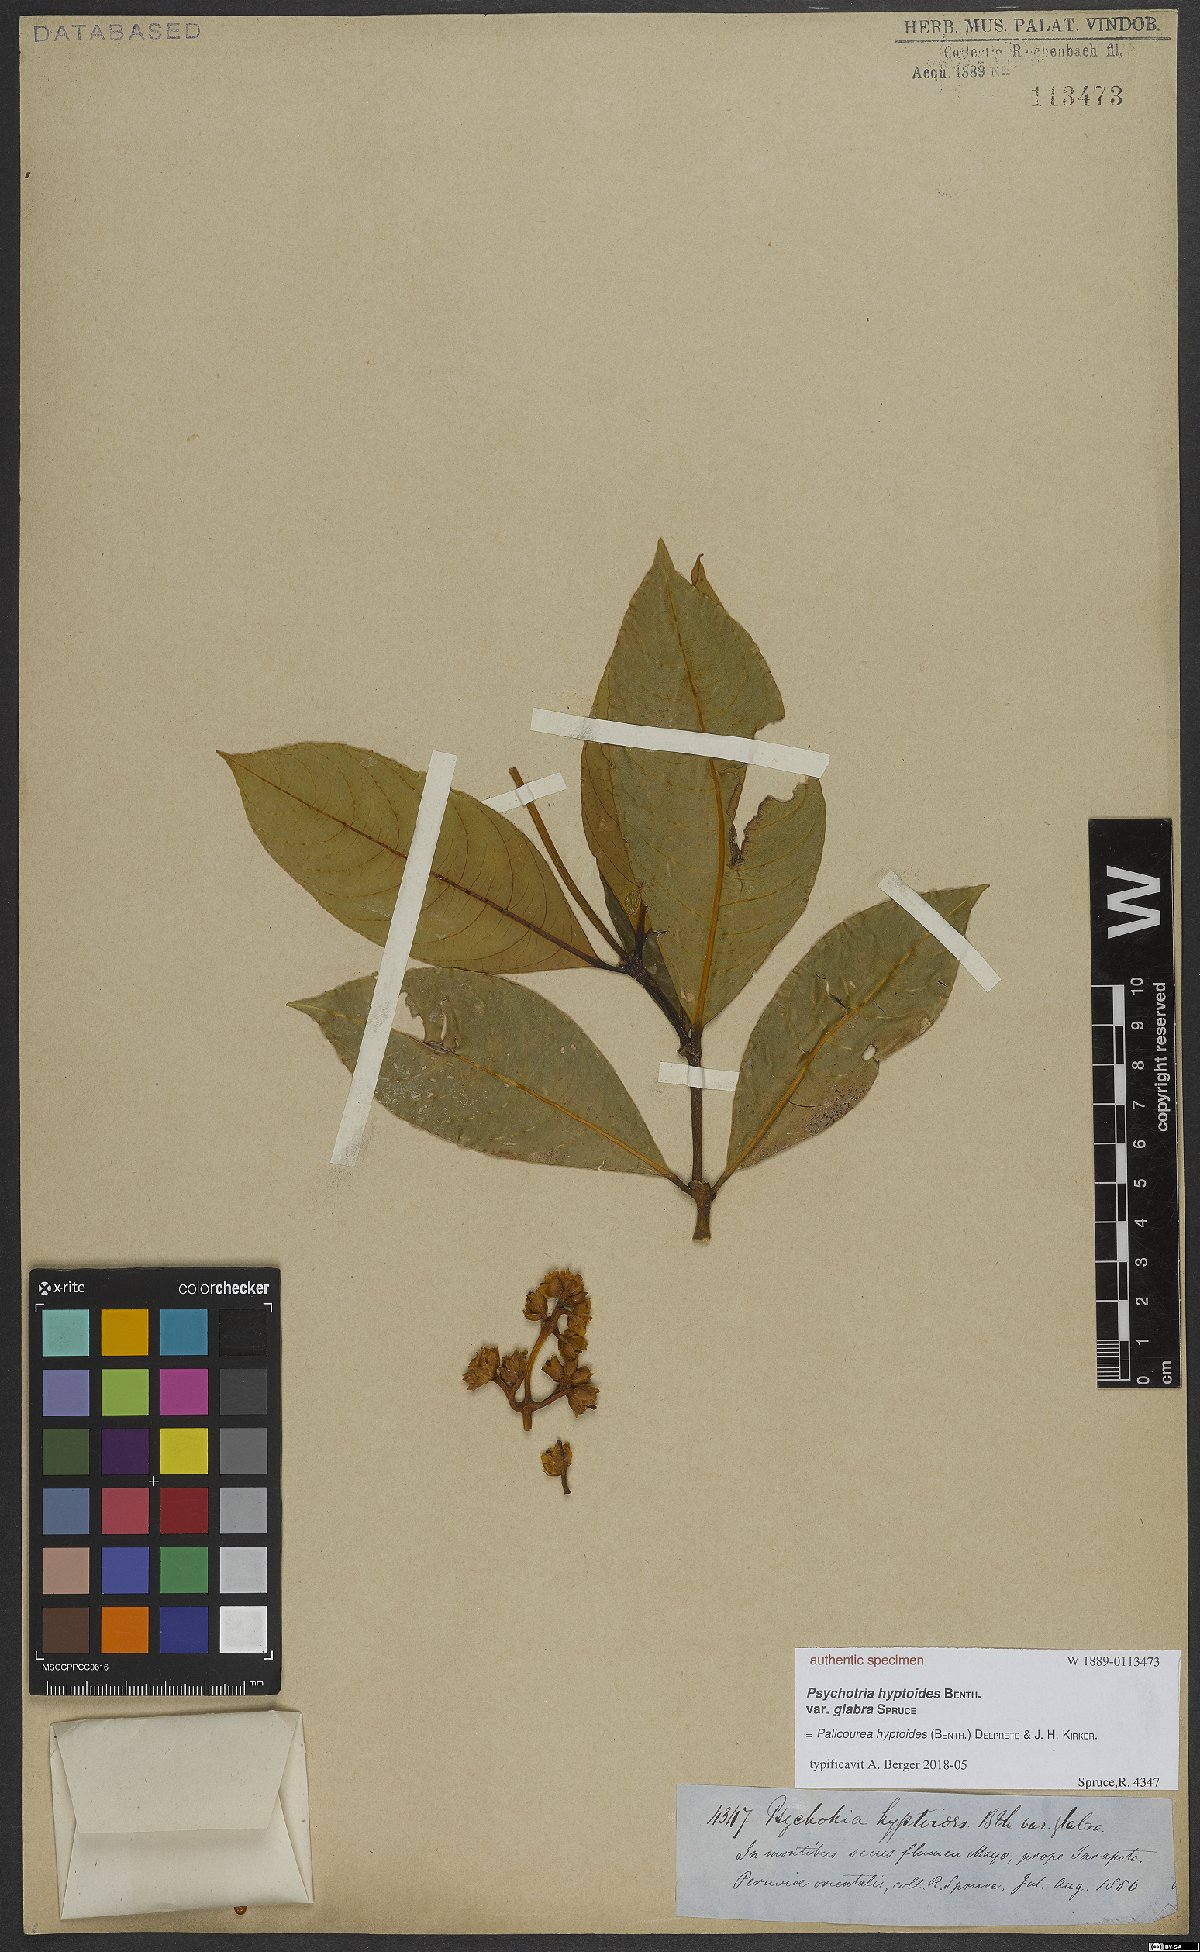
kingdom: Plantae
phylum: Tracheophyta
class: Magnoliopsida
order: Gentianales
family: Rubiaceae
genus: Palicourea
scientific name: Palicourea hyptoides
